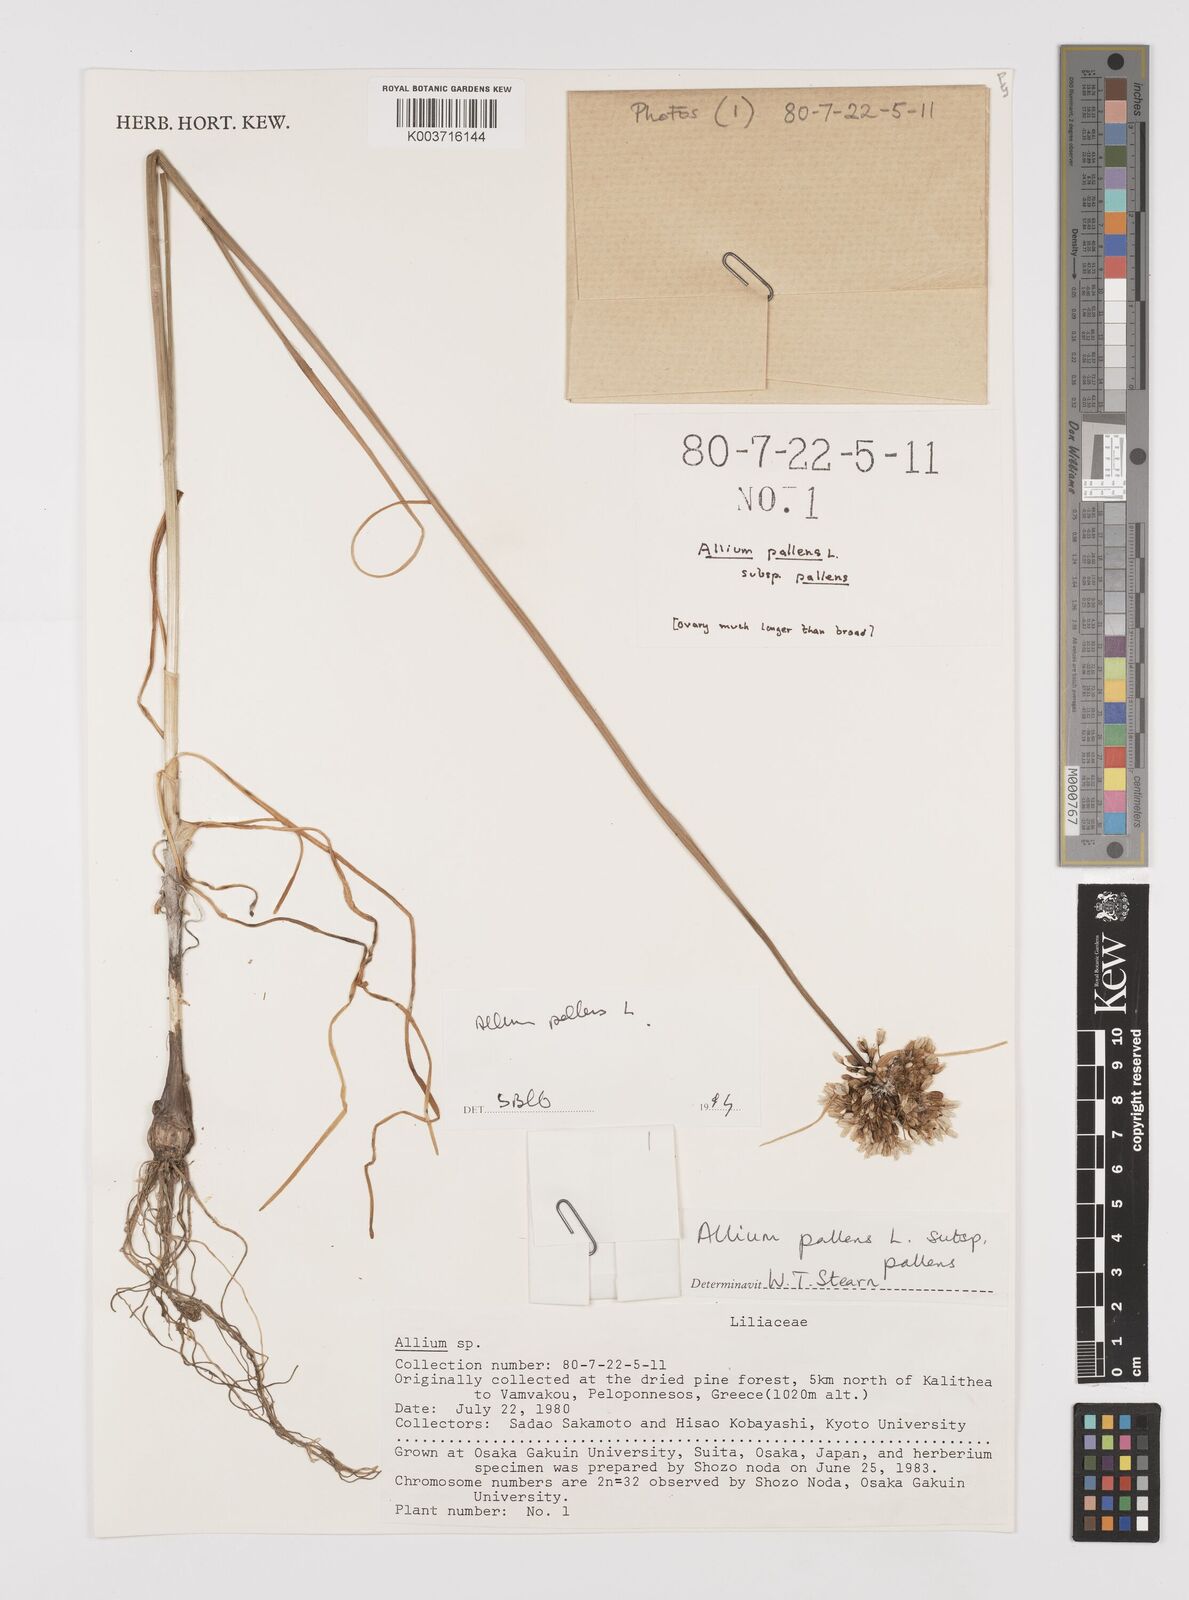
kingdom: Plantae
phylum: Tracheophyta
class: Liliopsida
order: Asparagales
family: Amaryllidaceae
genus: Allium
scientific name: Allium pallens
